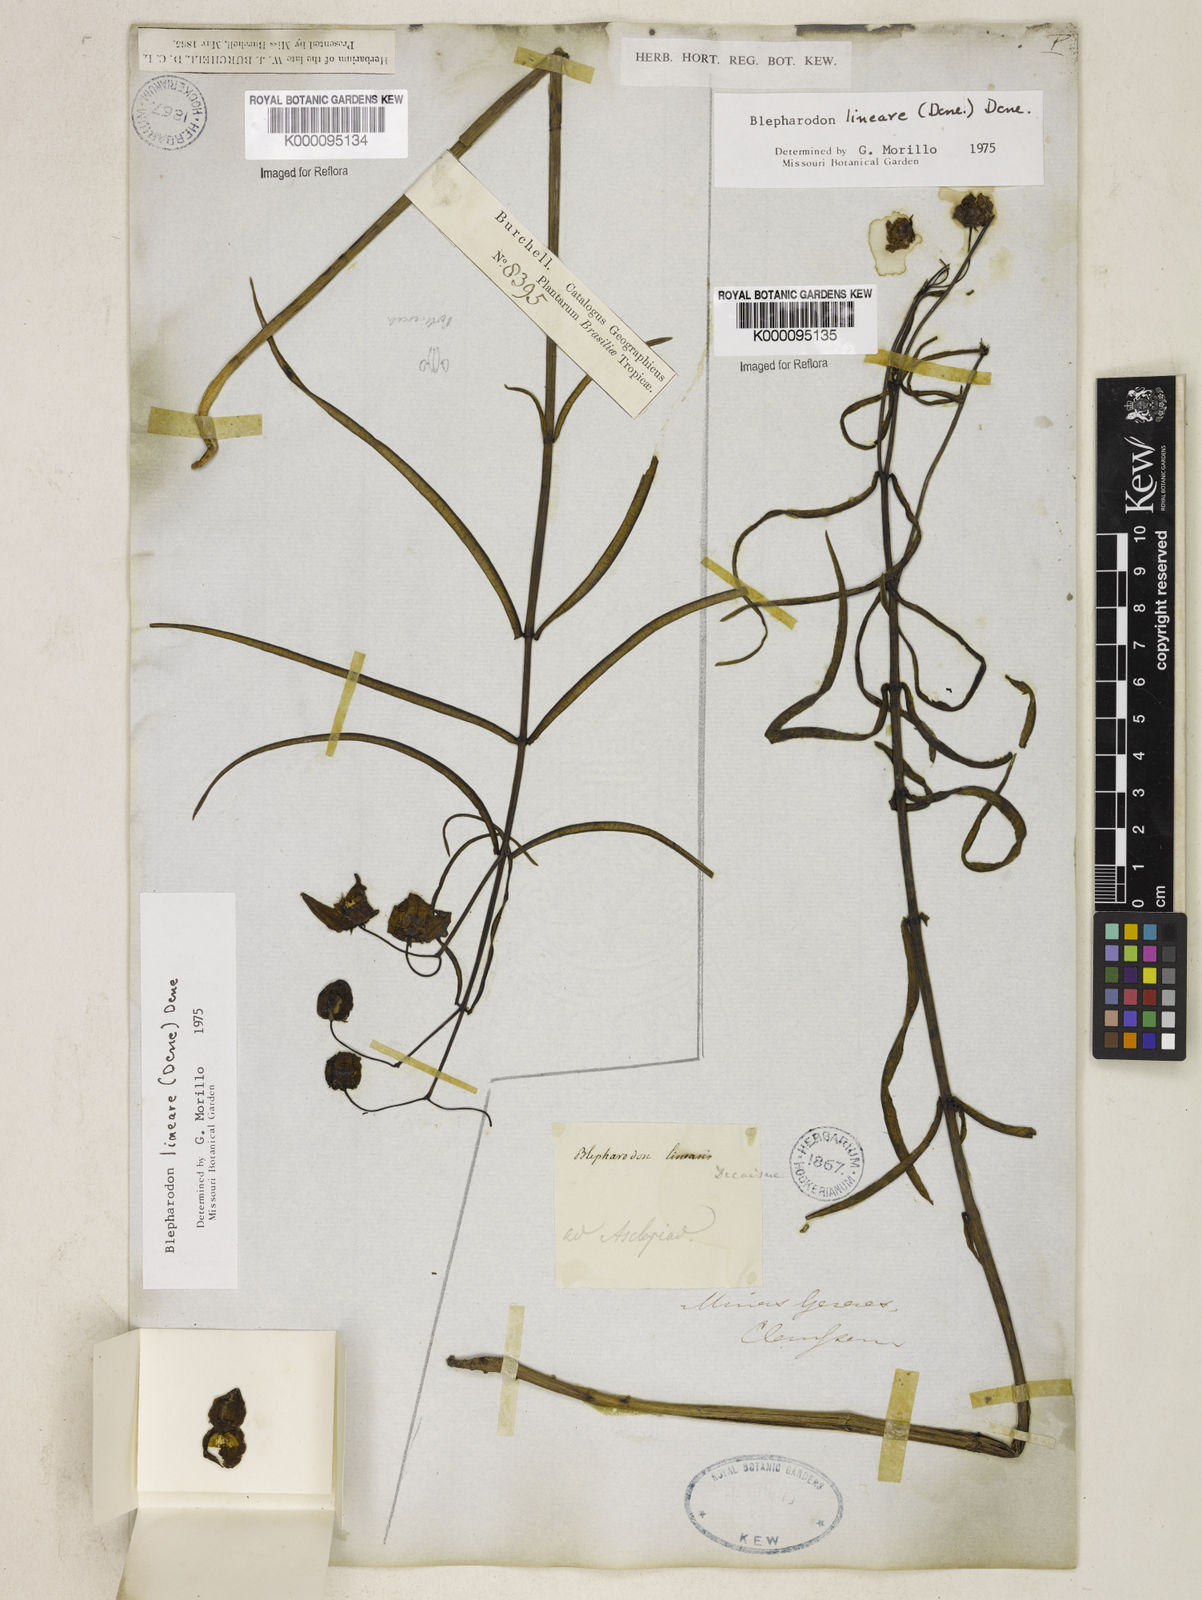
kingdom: Plantae
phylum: Tracheophyta
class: Magnoliopsida
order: Gentianales
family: Apocynaceae
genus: Blepharodon
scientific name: Blepharodon lineare
